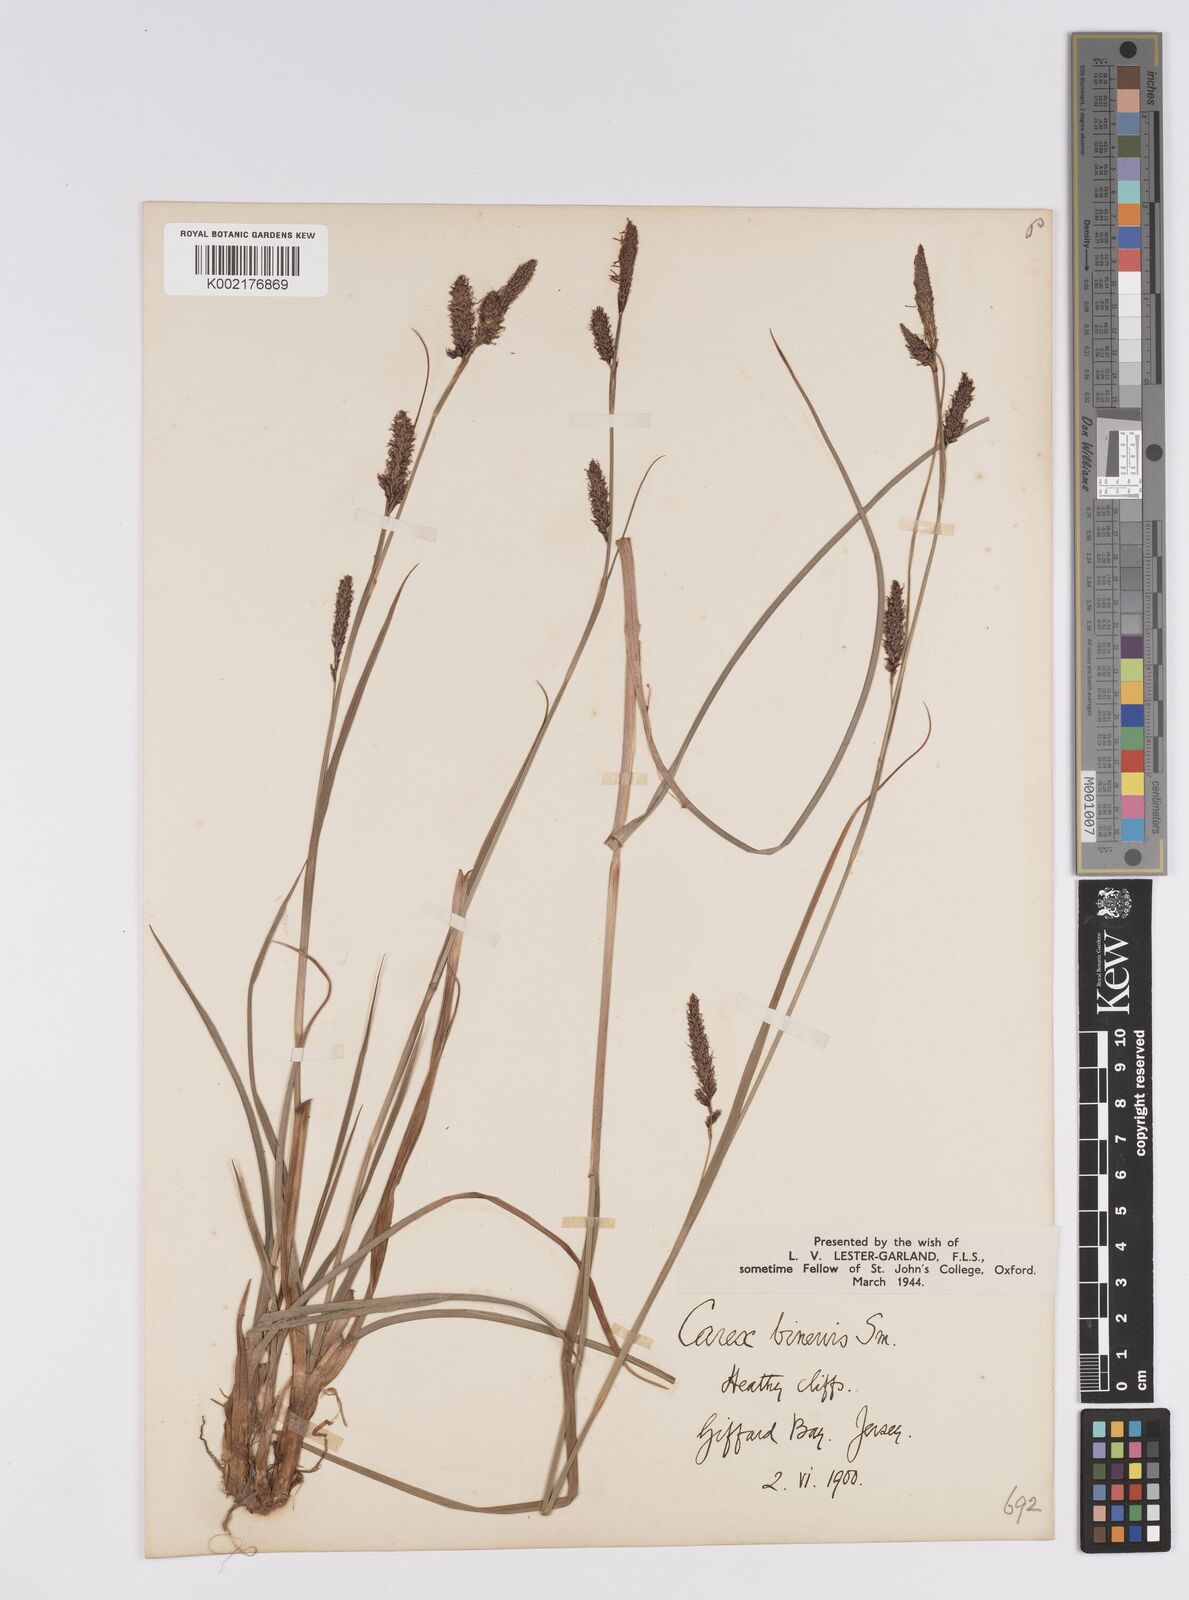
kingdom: Plantae
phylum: Tracheophyta
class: Liliopsida
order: Poales
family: Cyperaceae
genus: Carex
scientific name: Carex binervis
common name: Green-ribbed sedge
